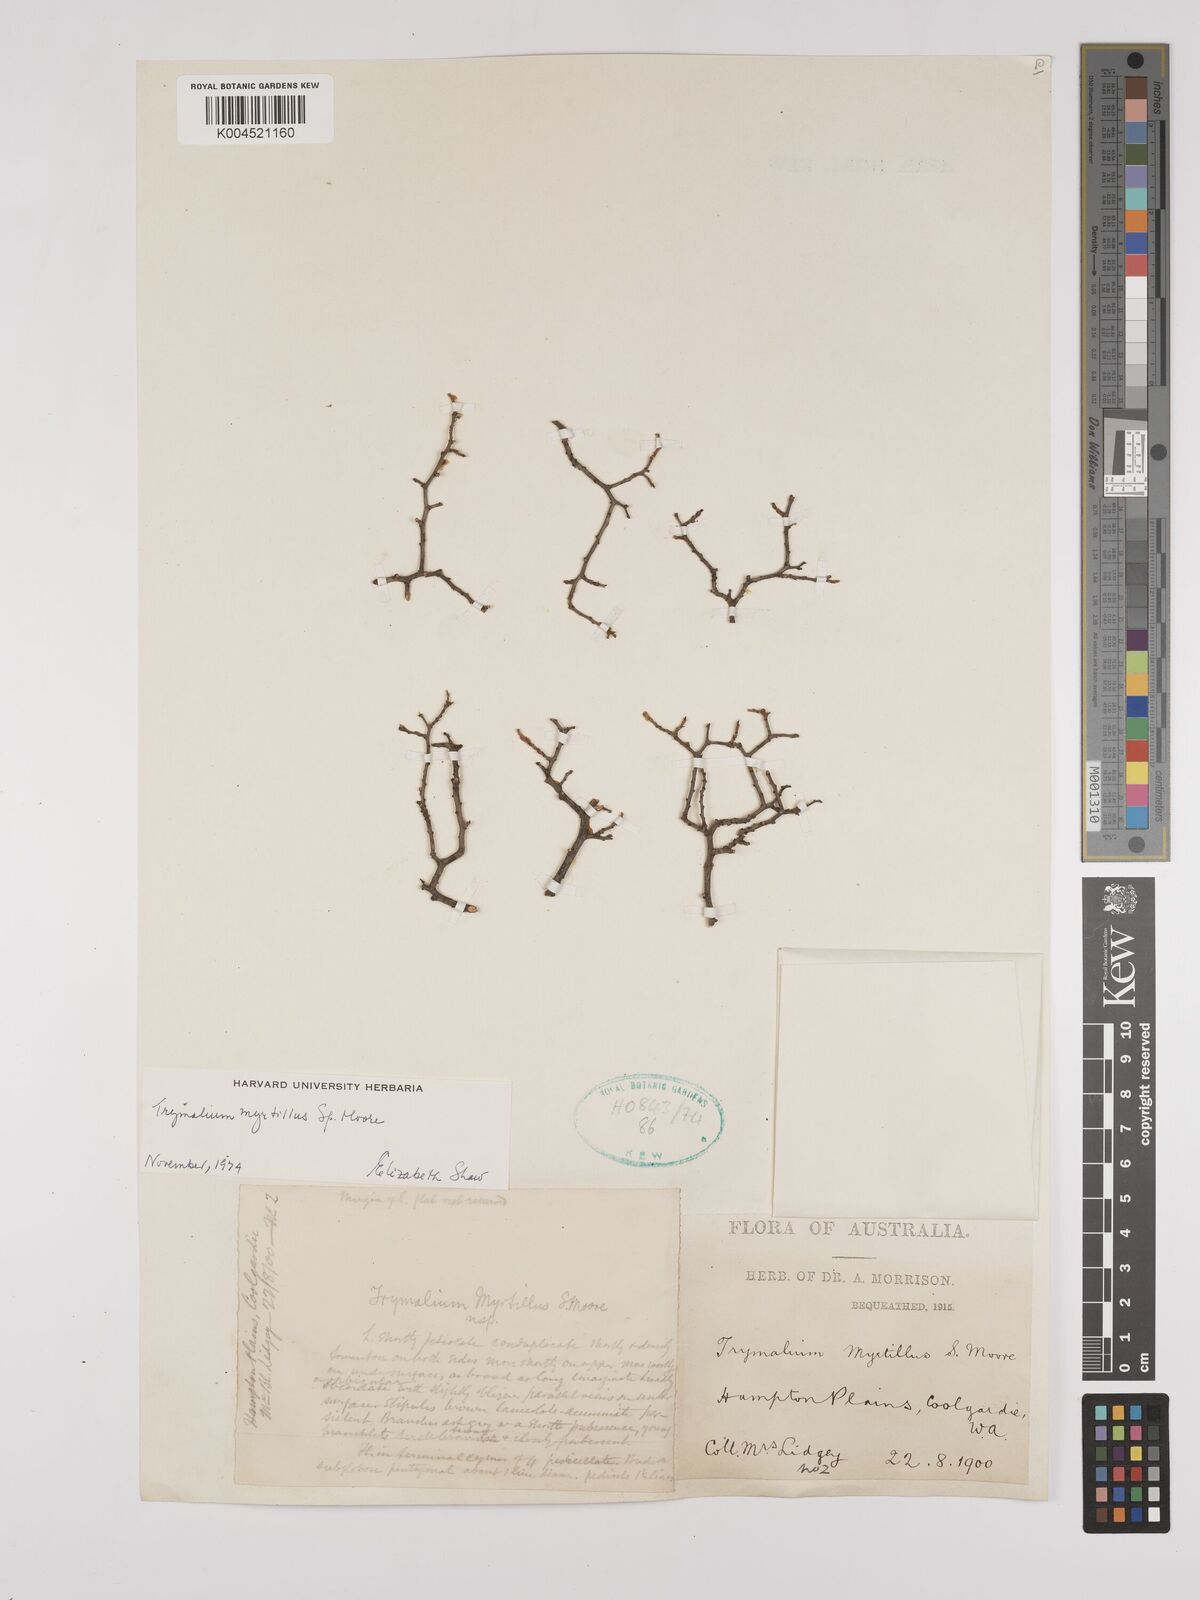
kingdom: Plantae
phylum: Tracheophyta
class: Magnoliopsida
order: Rosales
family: Rhamnaceae
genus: Trymalium
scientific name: Trymalium myrtillus
